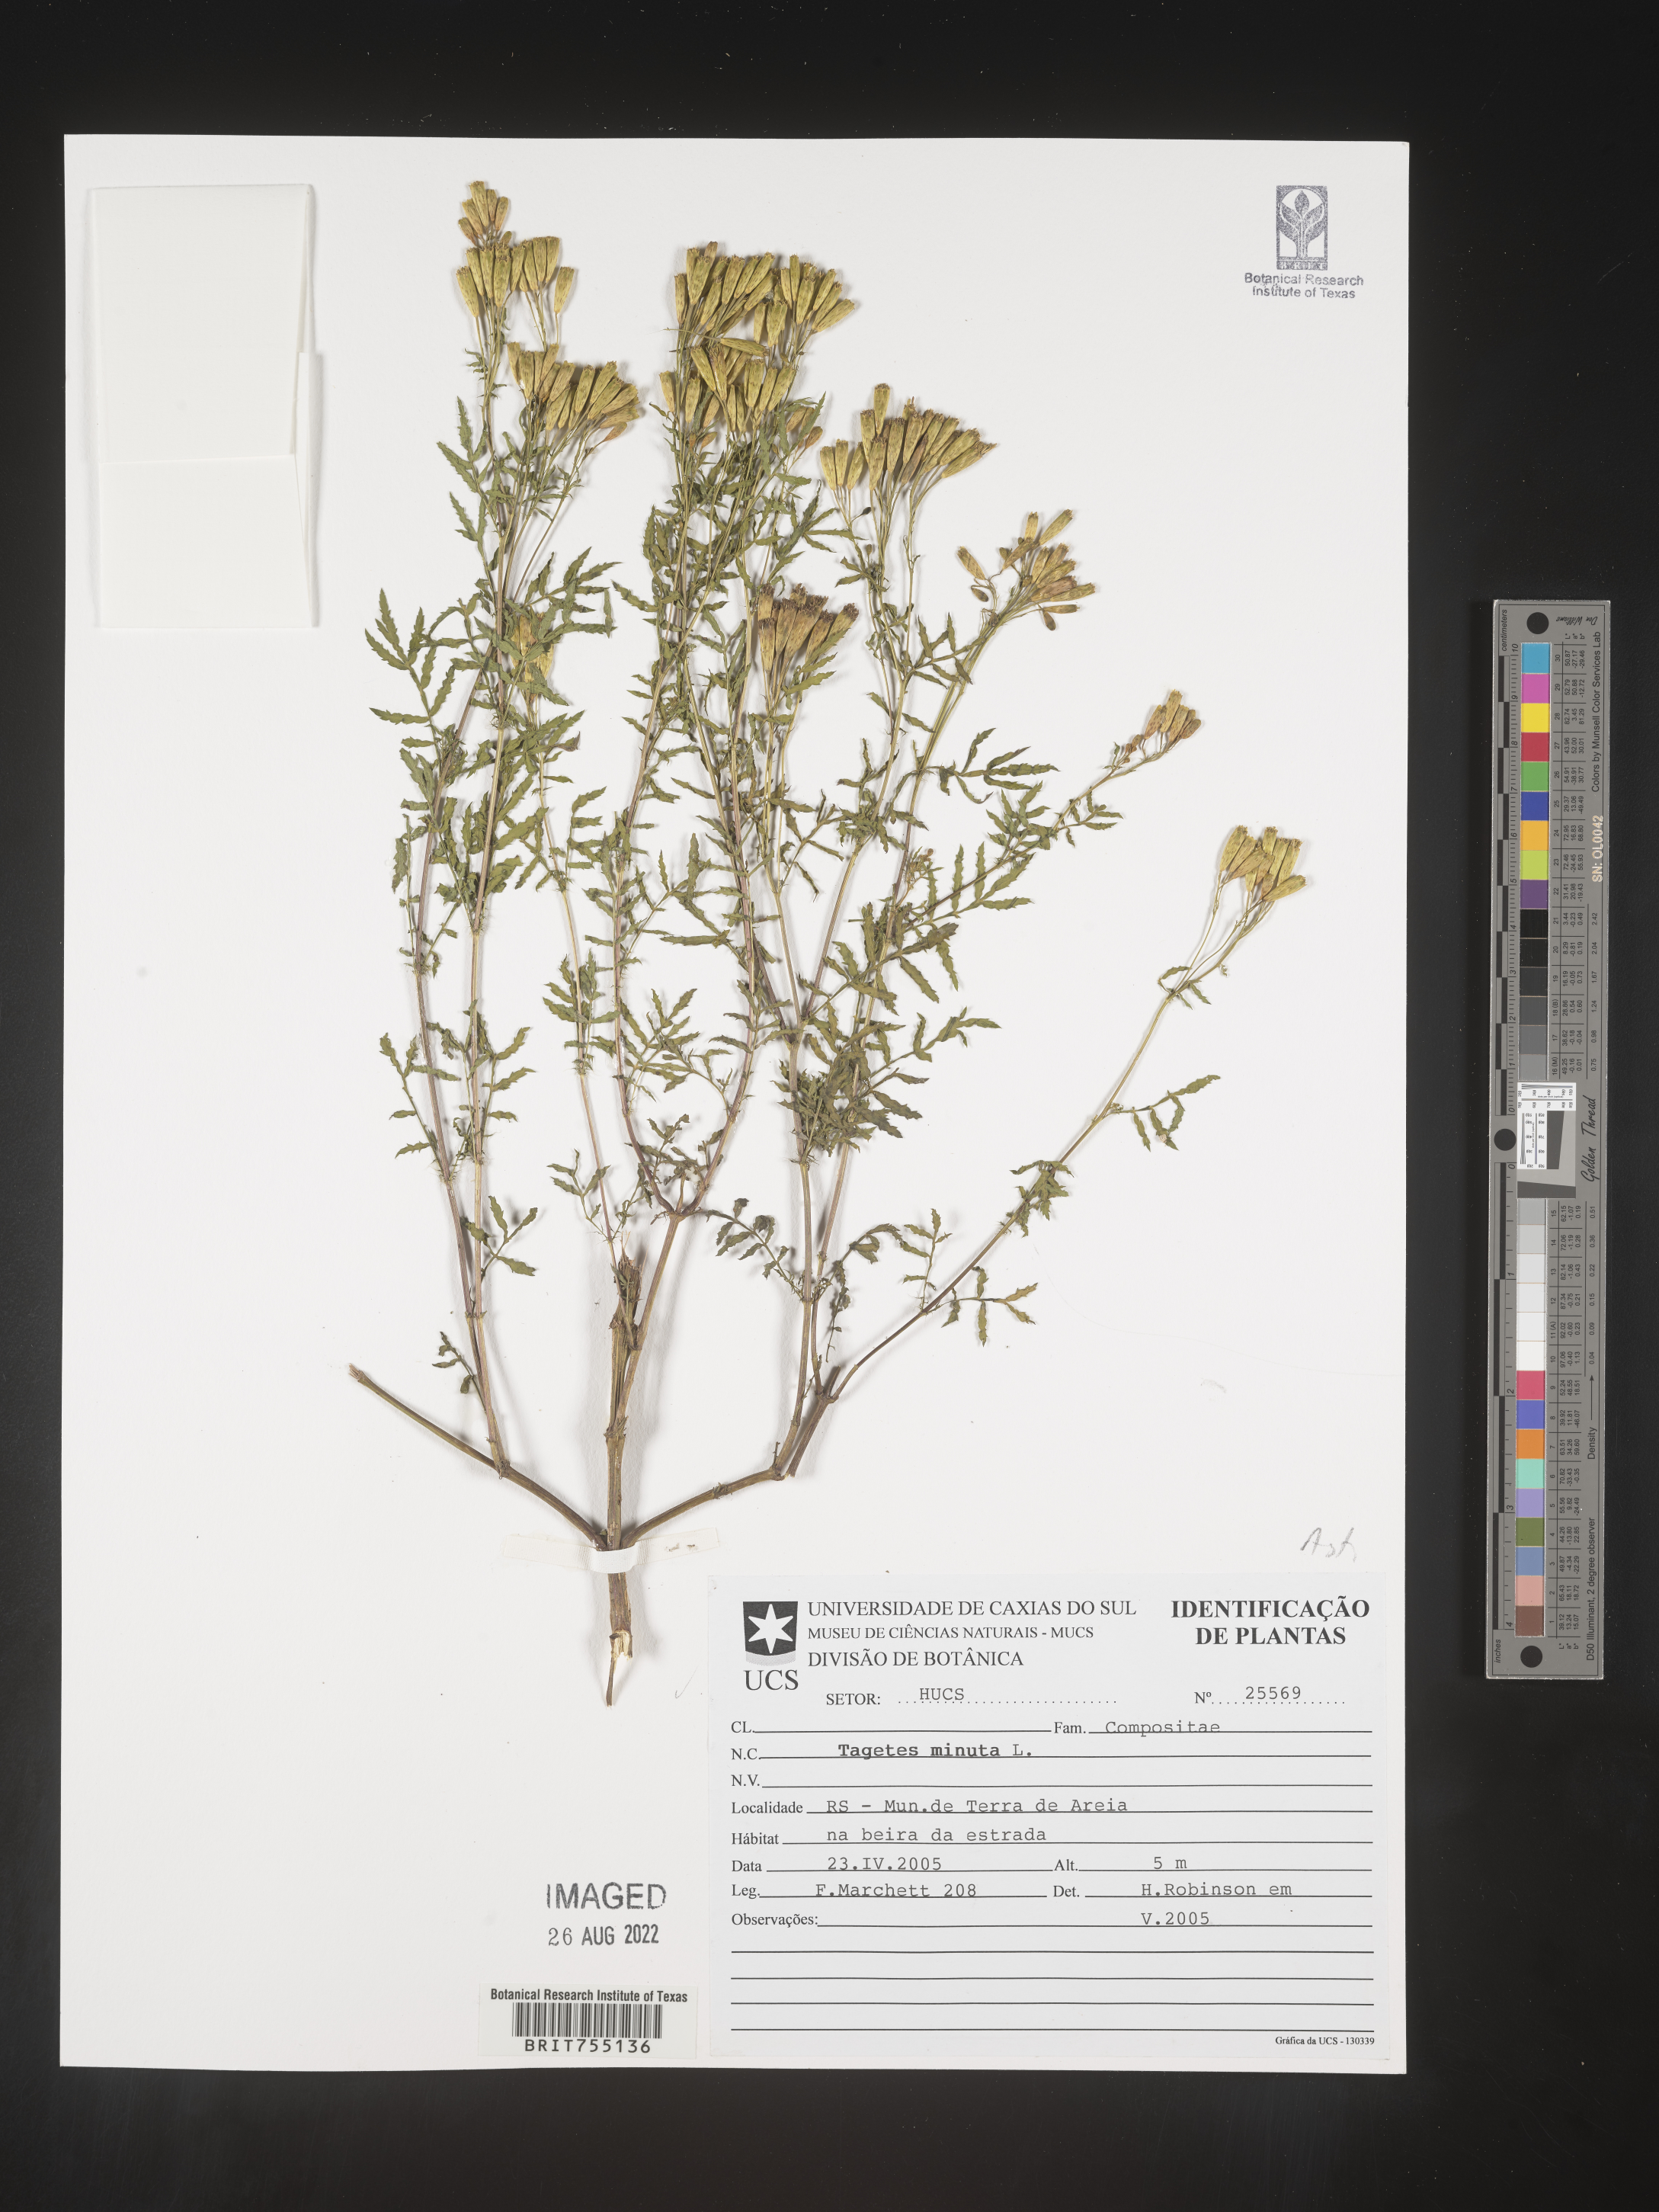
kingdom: Plantae
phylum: Tracheophyta
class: Magnoliopsida
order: Asterales
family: Asteraceae
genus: Tagetes
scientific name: Tagetes
